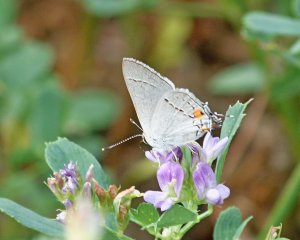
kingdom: Animalia
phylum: Arthropoda
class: Insecta
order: Lepidoptera
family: Lycaenidae
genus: Strymon
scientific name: Strymon melinus
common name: Gray Hairstreak
